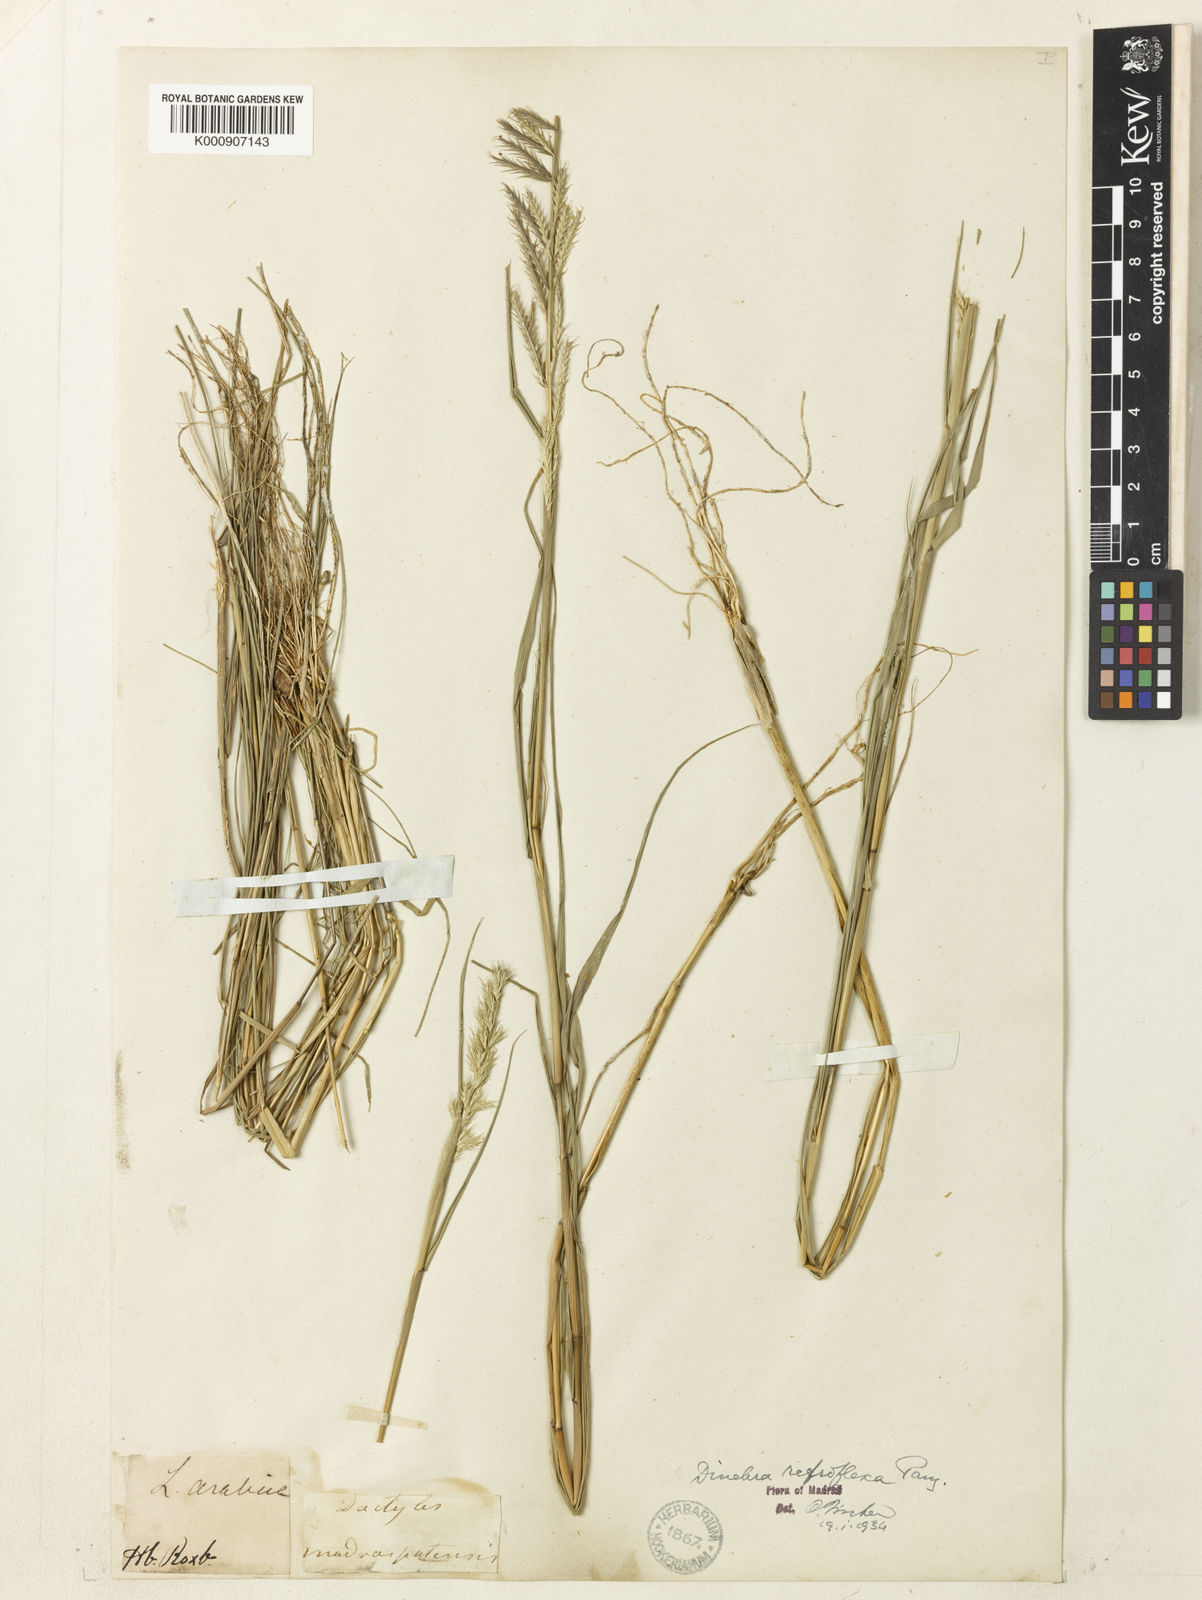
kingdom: Plantae
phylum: Tracheophyta
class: Liliopsida
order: Poales
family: Poaceae
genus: Dinebra
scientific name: Dinebra retroflexa
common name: Viper grass
